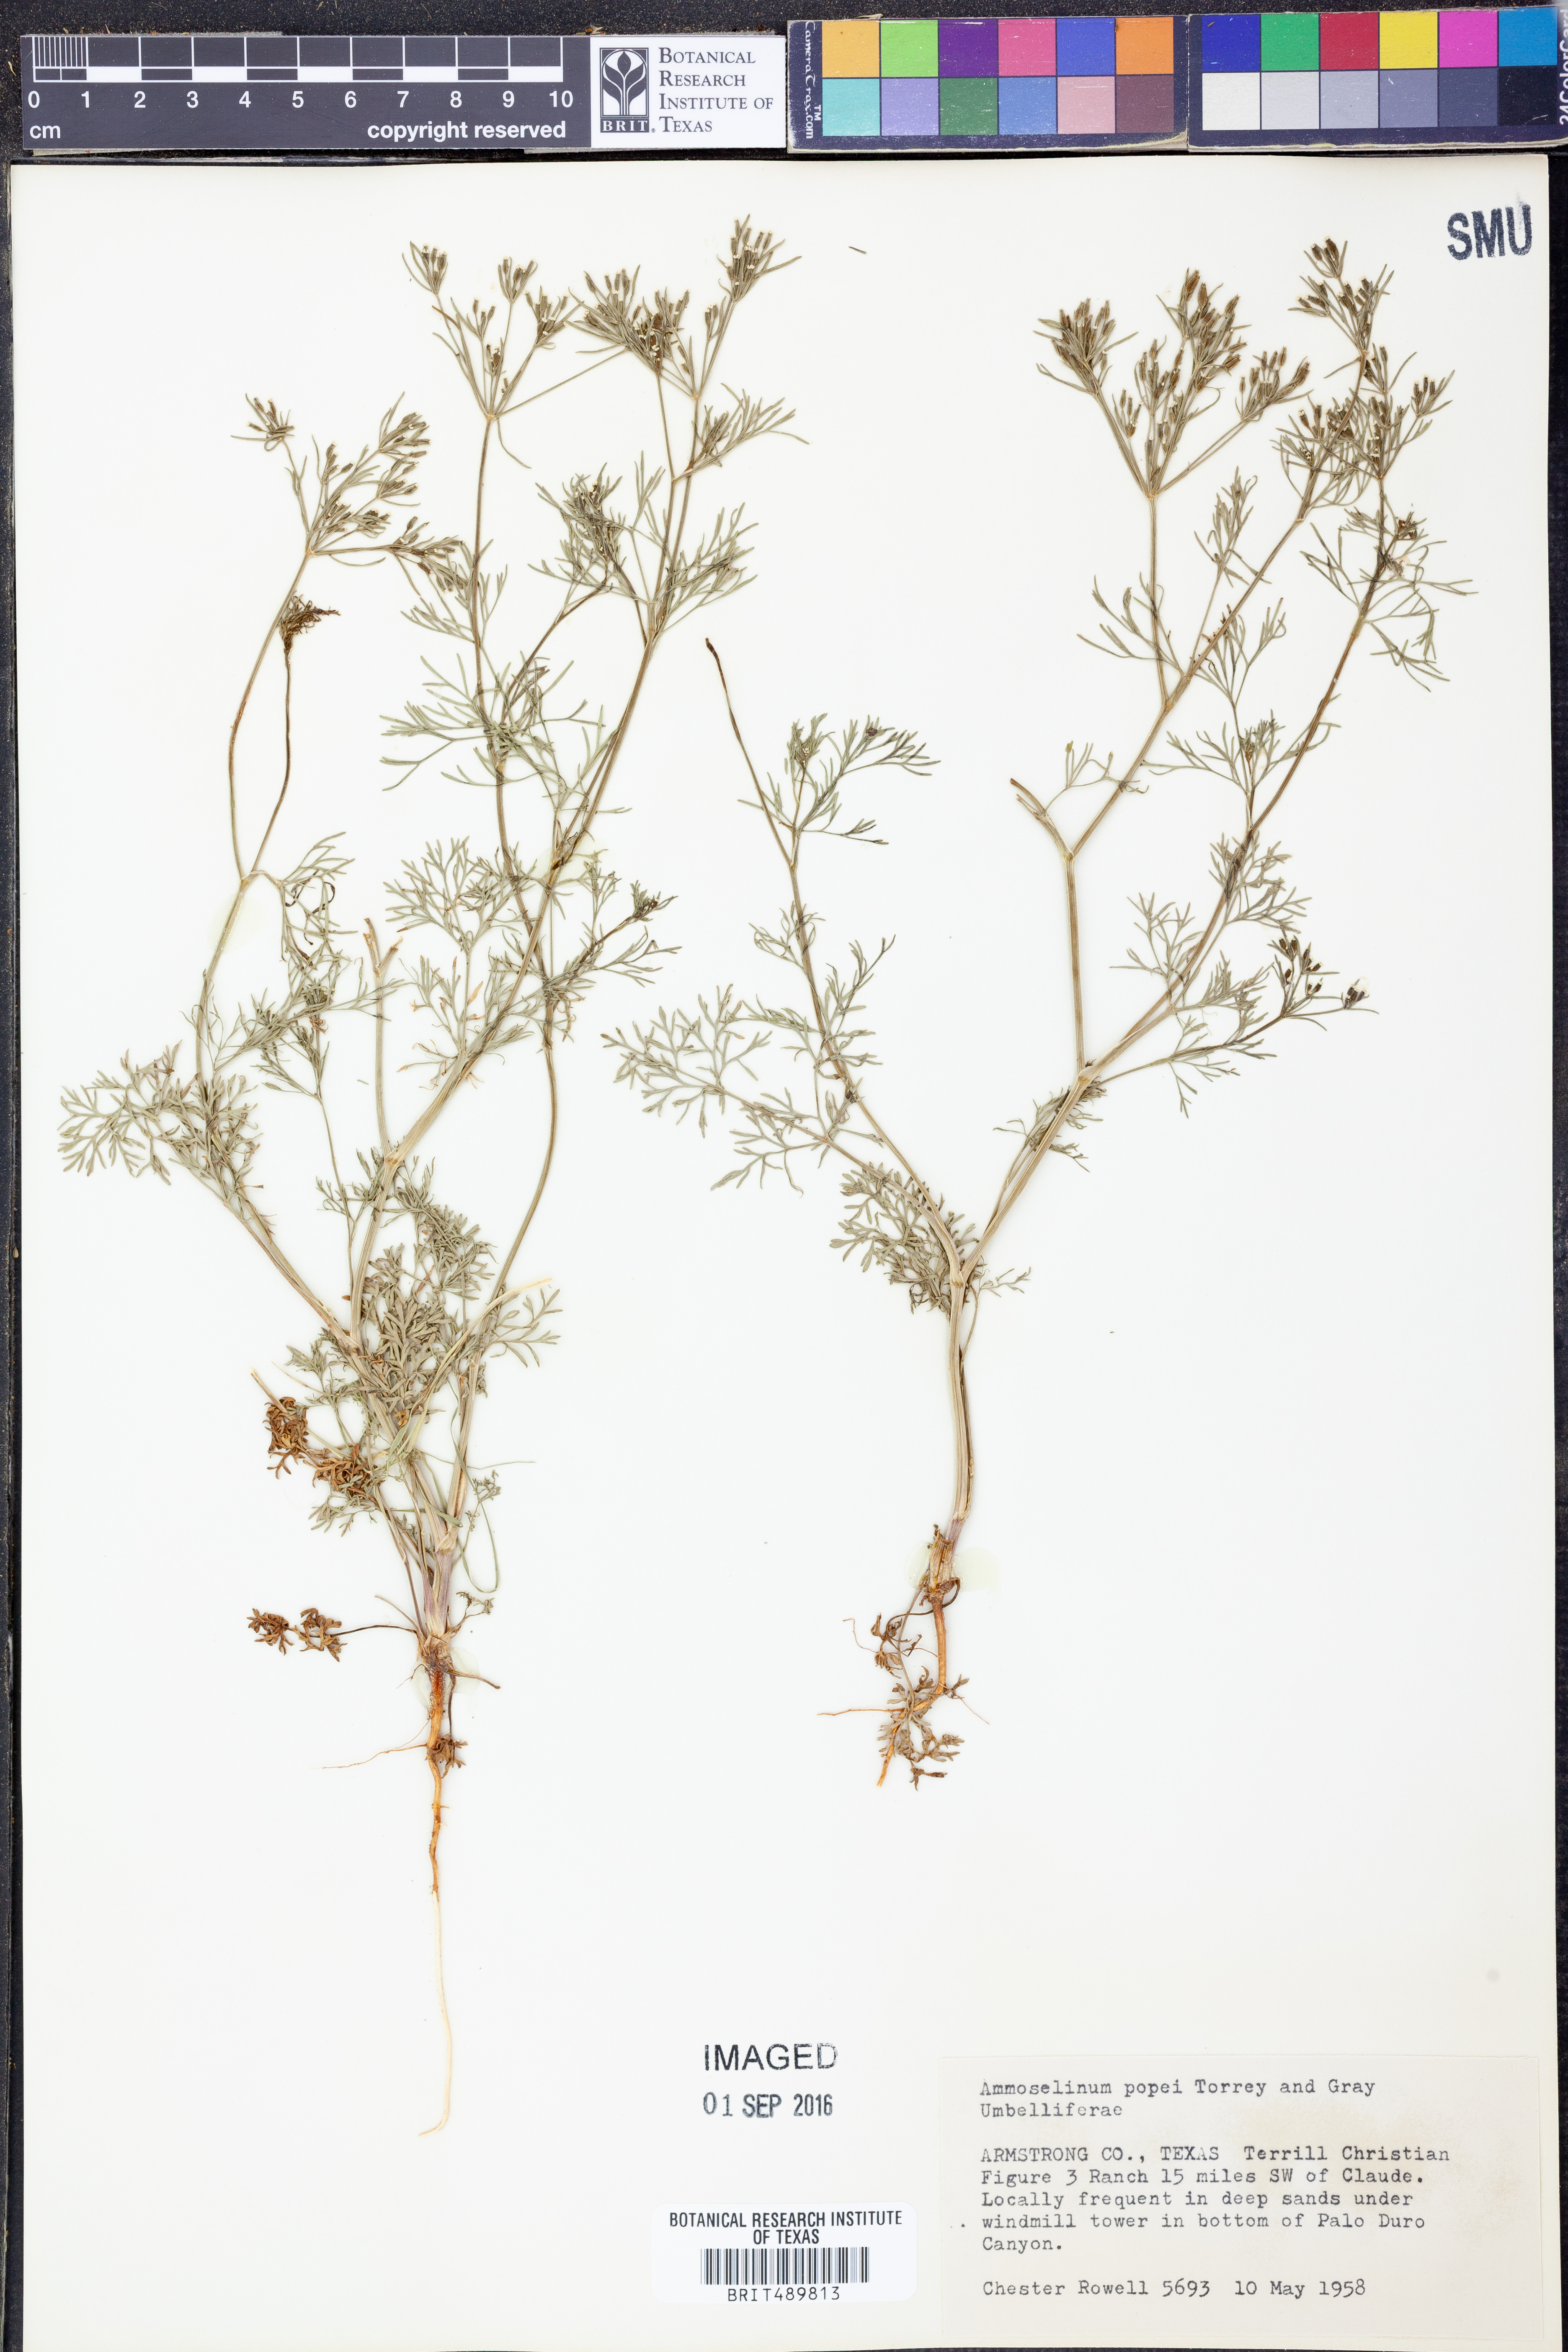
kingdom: Plantae
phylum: Tracheophyta
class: Magnoliopsida
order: Apiales
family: Apiaceae
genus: Ammoselinum
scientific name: Ammoselinum popei
